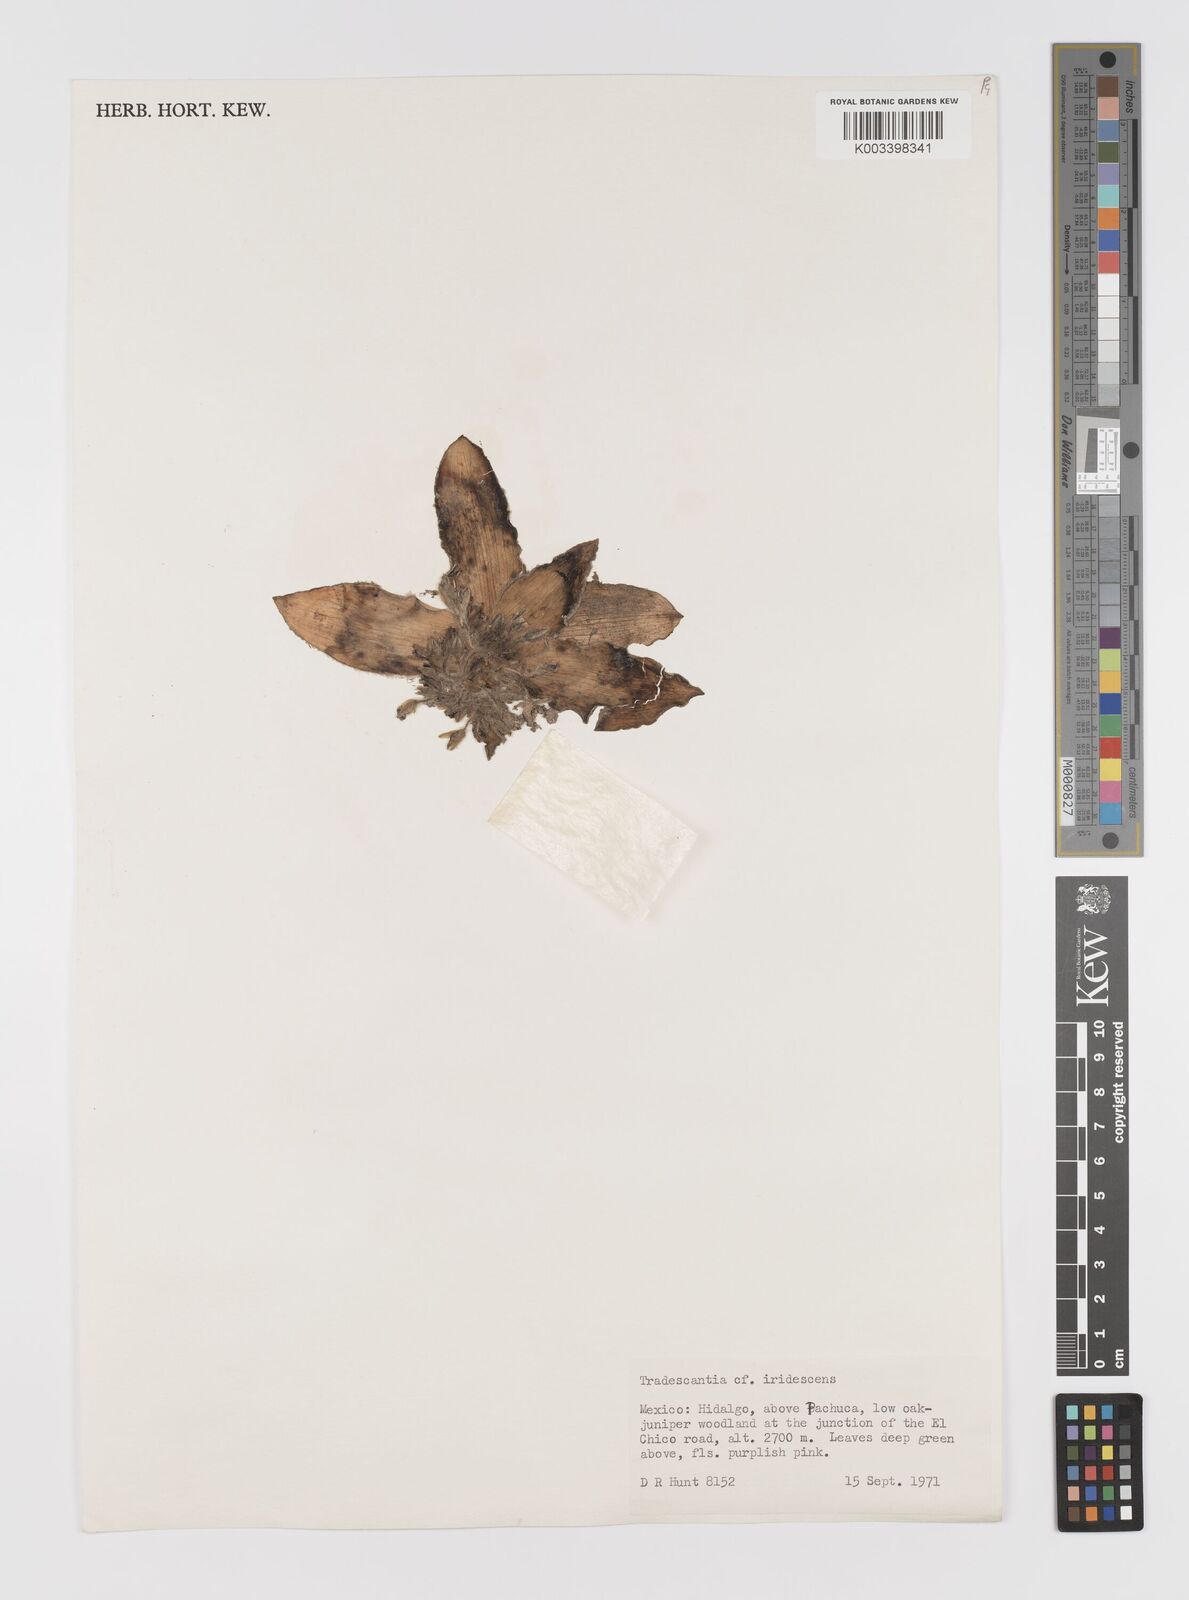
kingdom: Plantae
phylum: Tracheophyta
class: Liliopsida
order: Commelinales
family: Commelinaceae
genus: Tradescantia
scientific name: Tradescantia crassifolia
